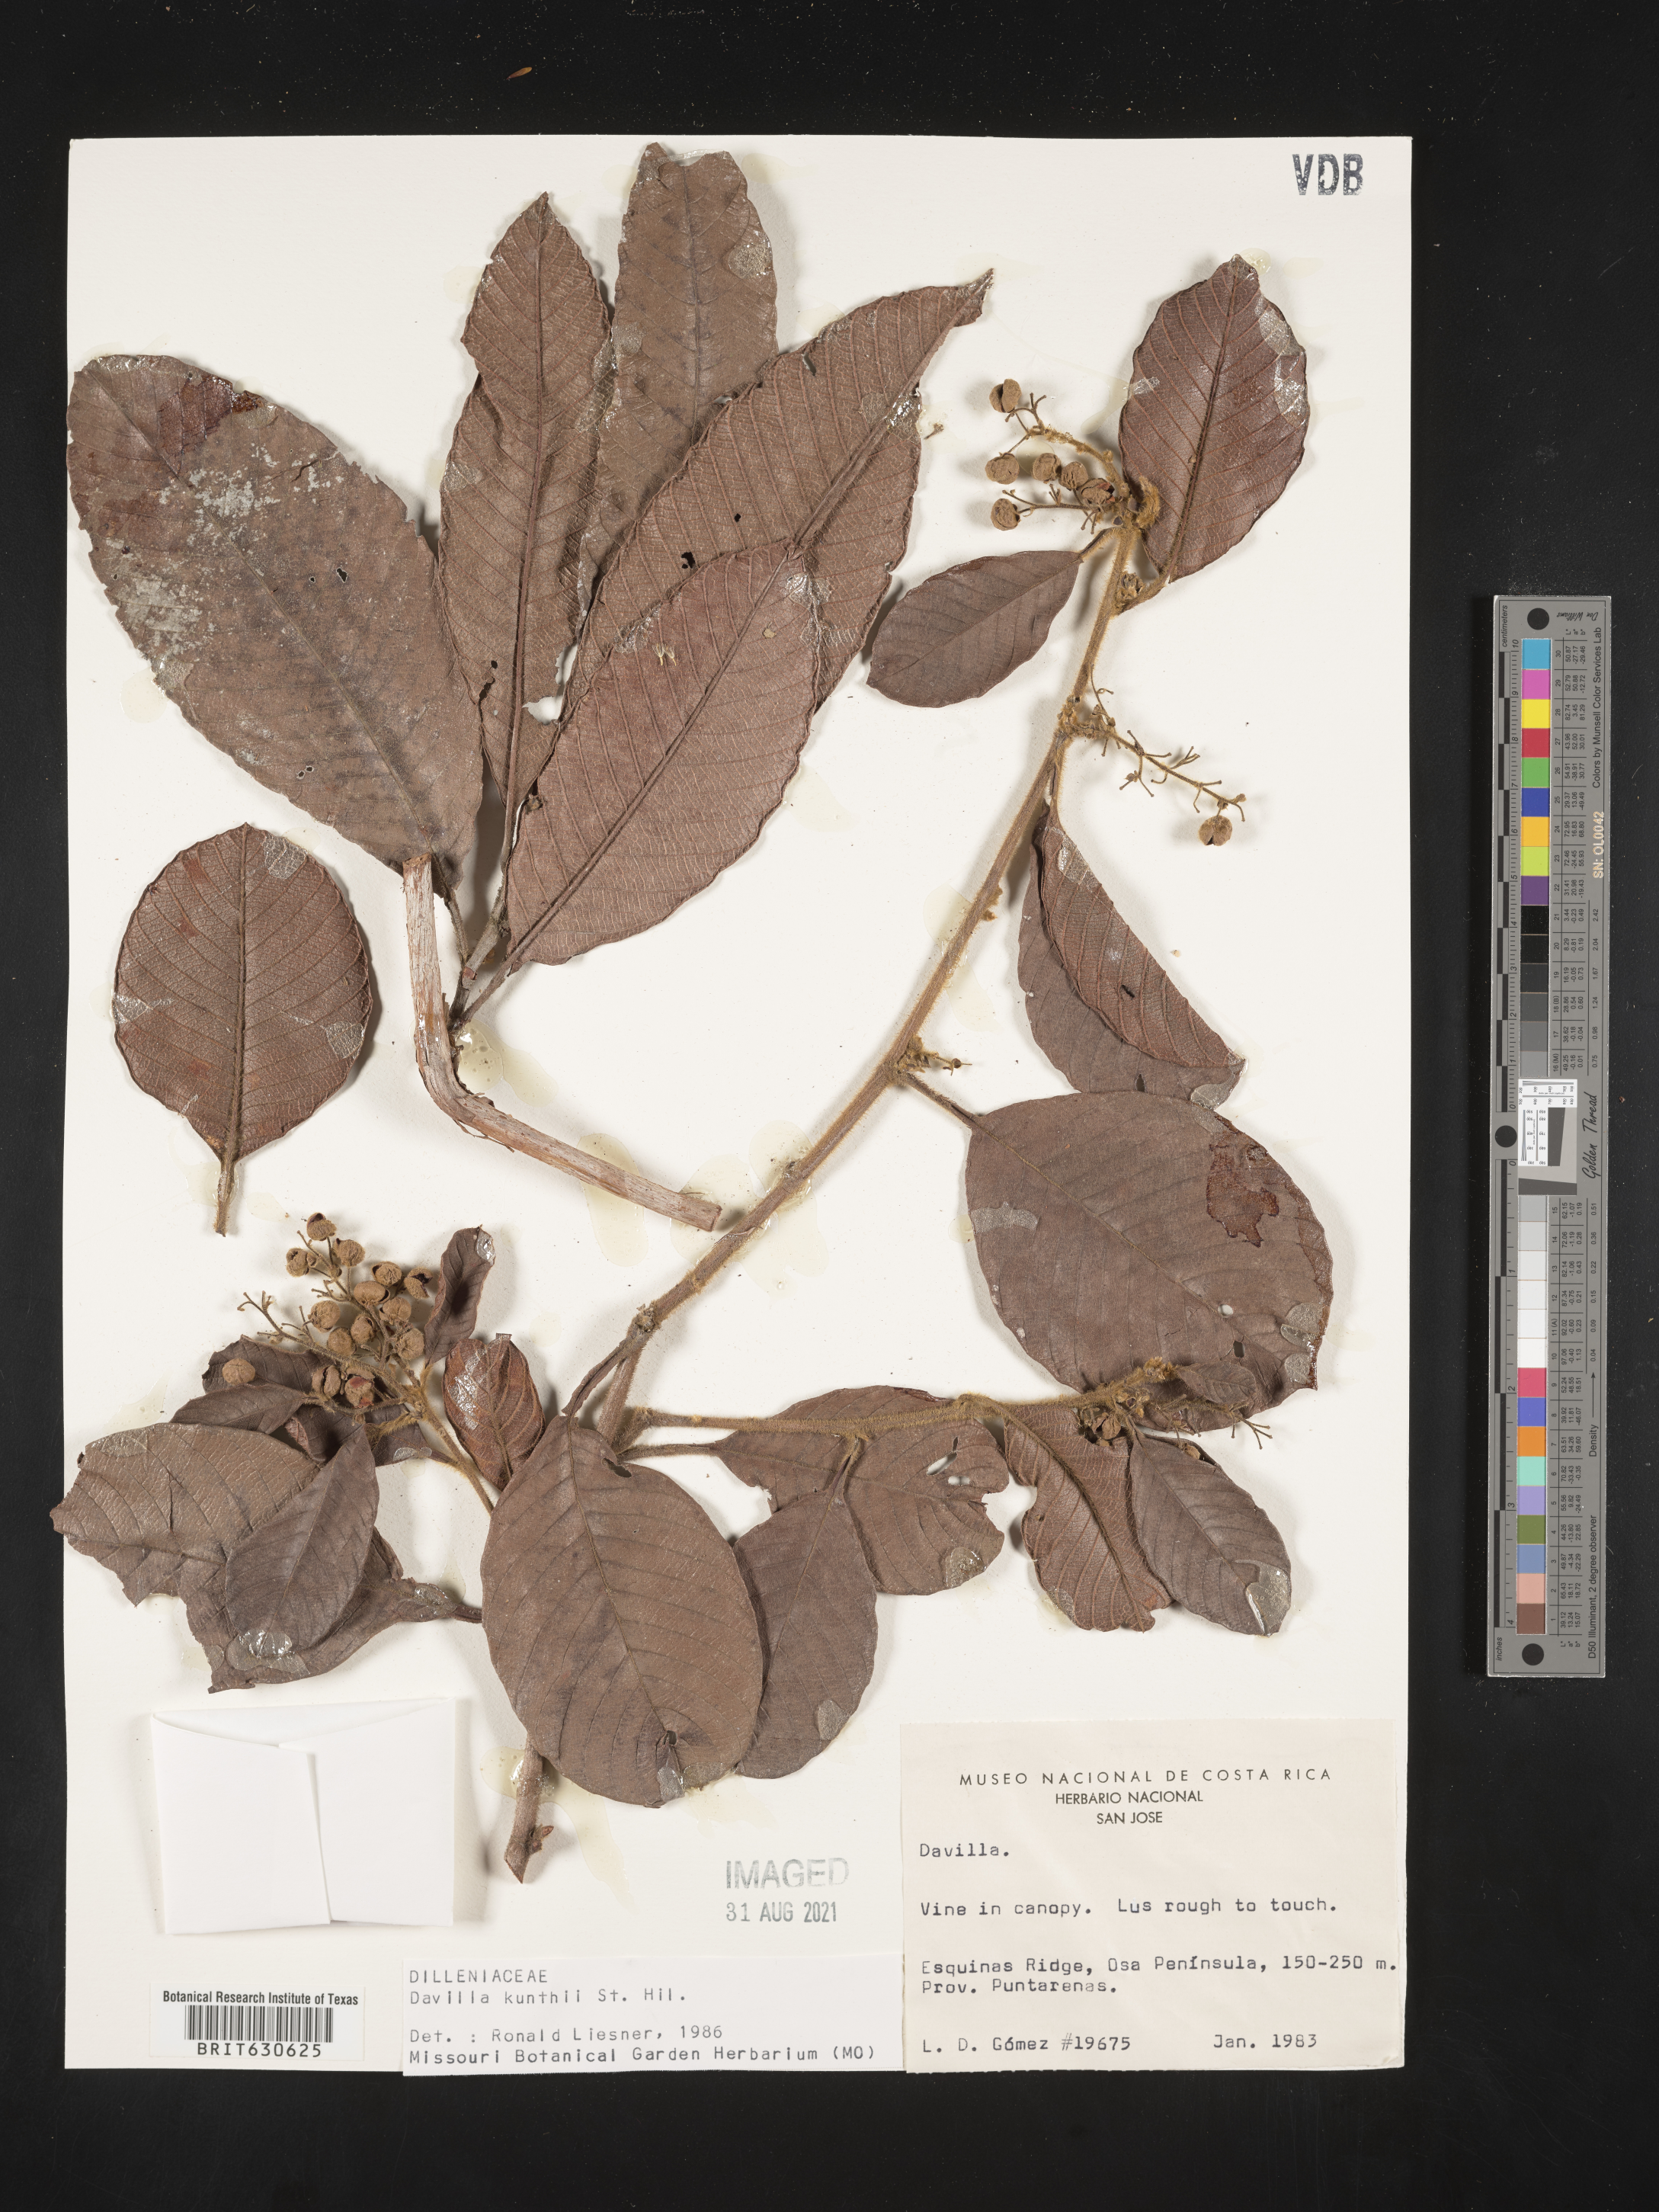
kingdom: Plantae
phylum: Tracheophyta
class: Magnoliopsida
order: Dilleniales
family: Dilleniaceae
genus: Davilla
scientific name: Davilla
